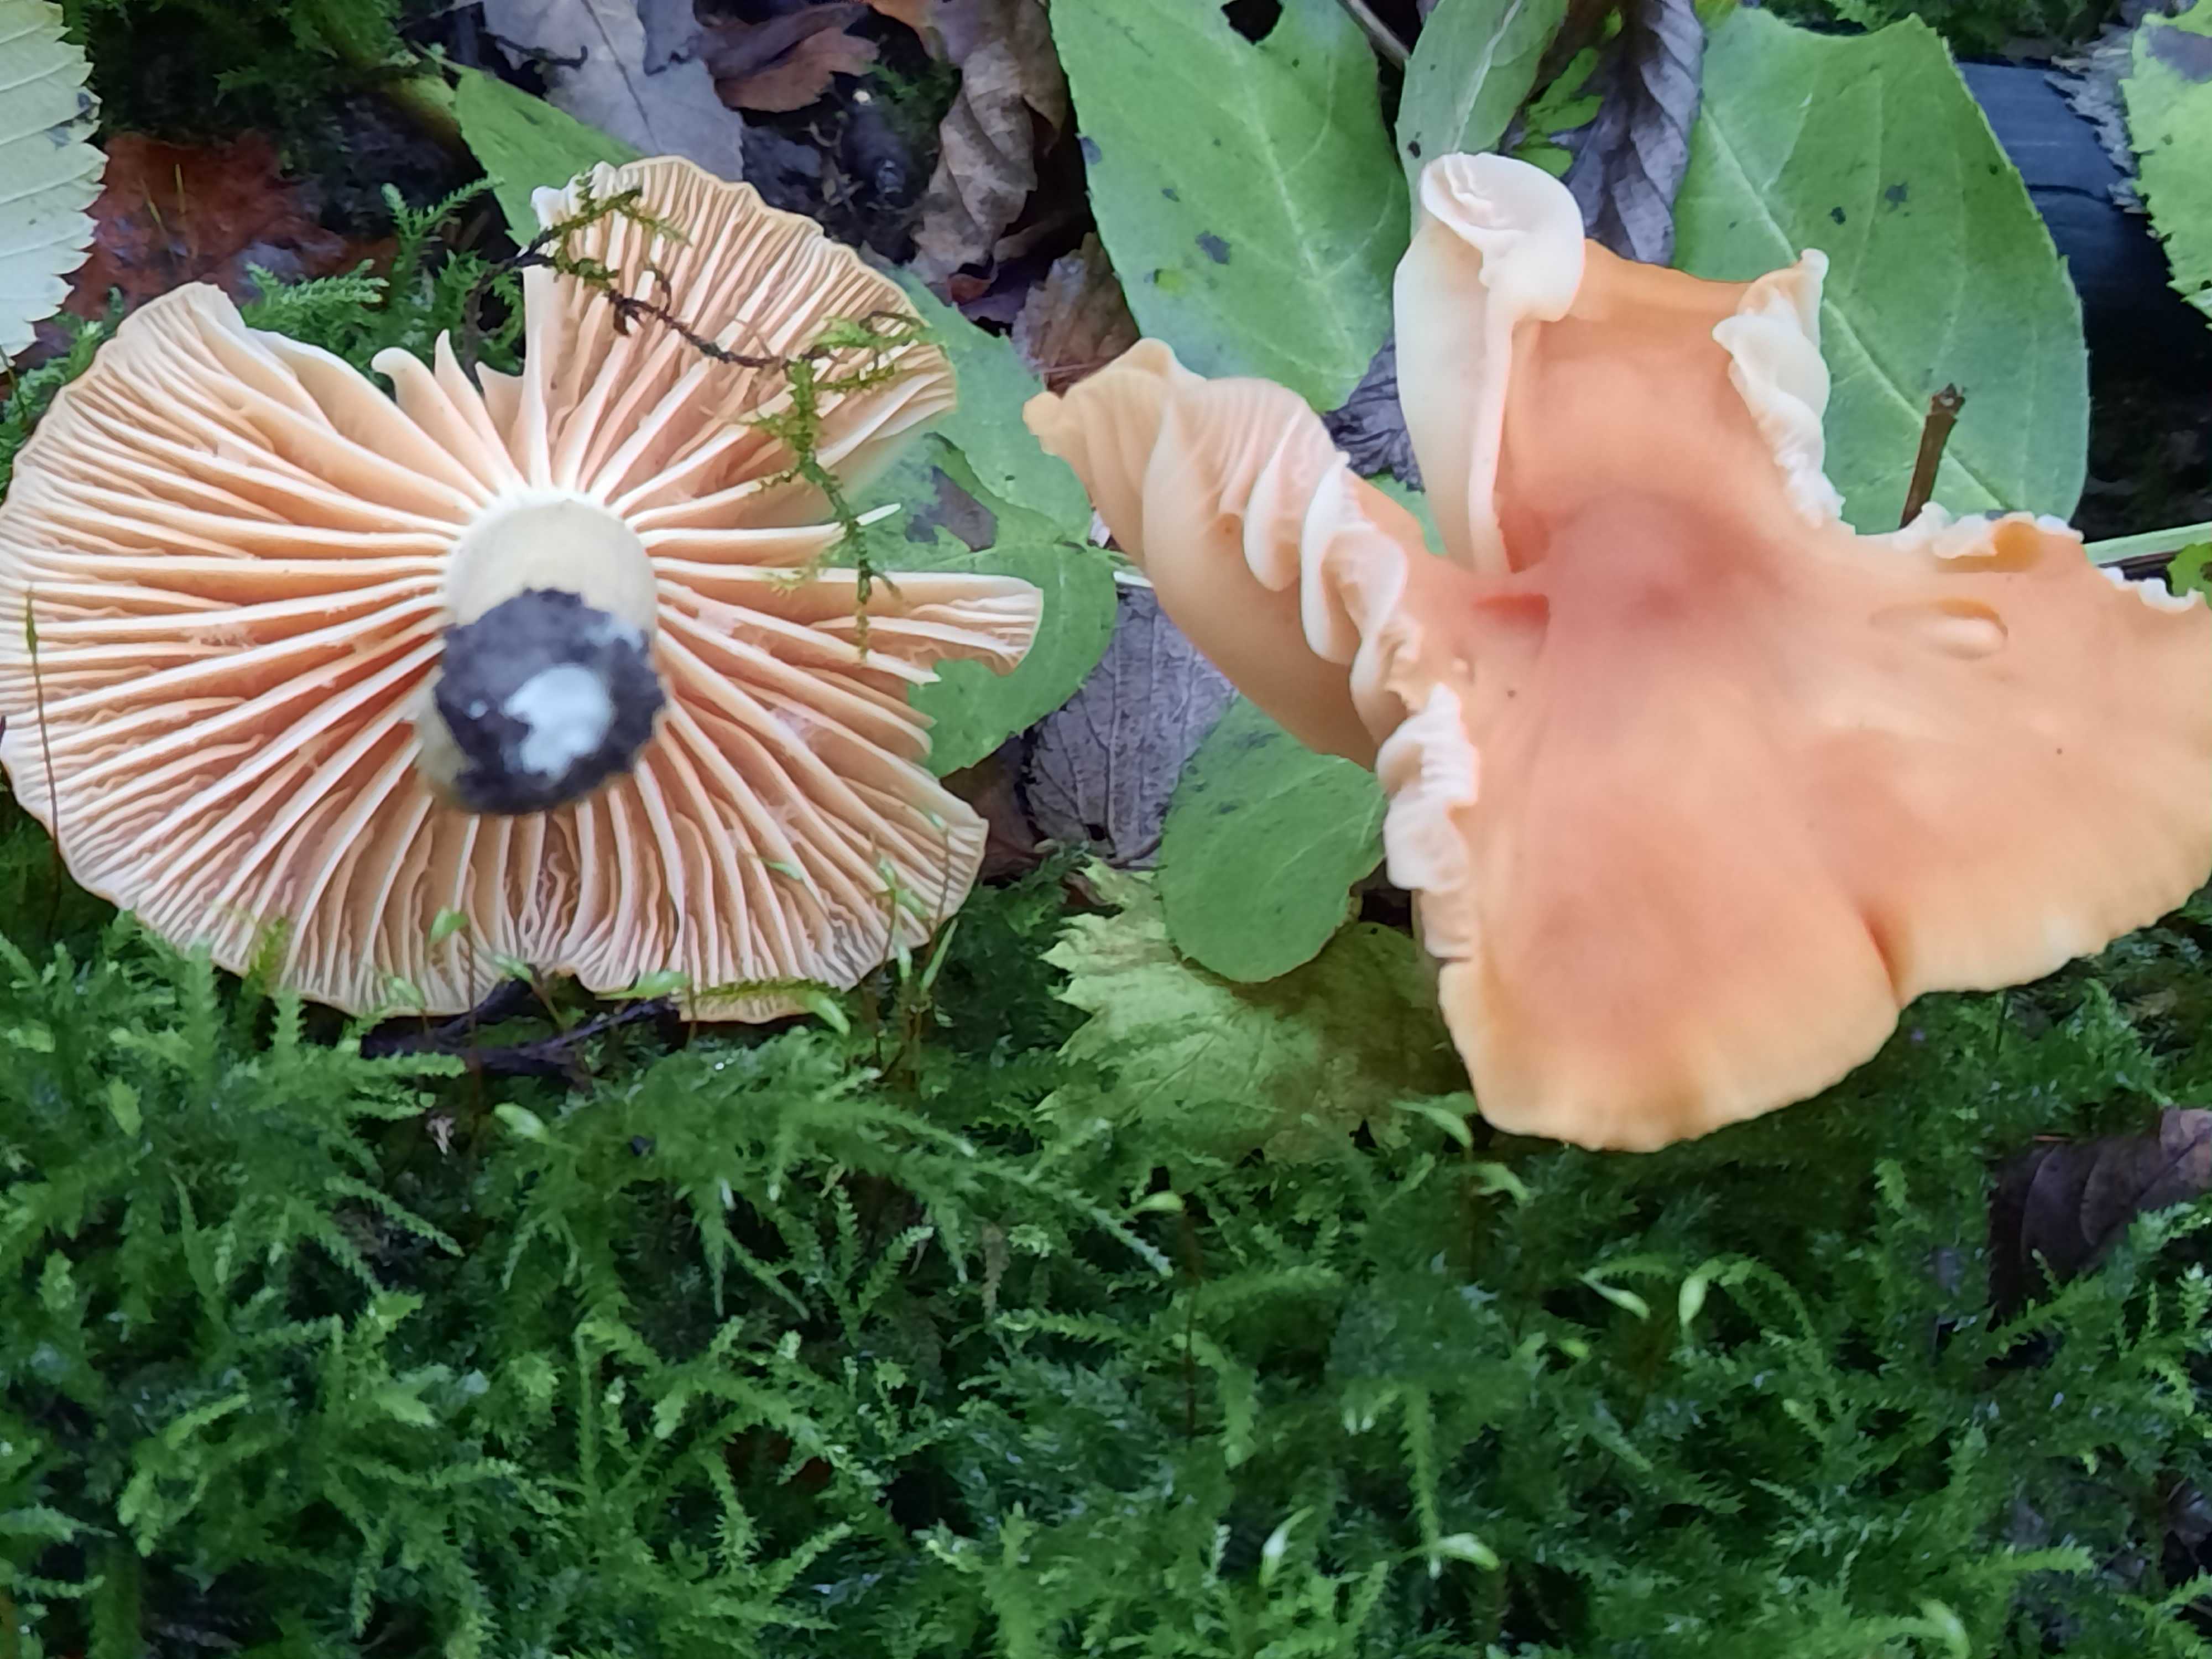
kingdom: Fungi
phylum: Basidiomycota
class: Agaricomycetes
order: Agaricales
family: Hygrophoraceae
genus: Cuphophyllus
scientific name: Cuphophyllus pratensis
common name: eng-vokshat
